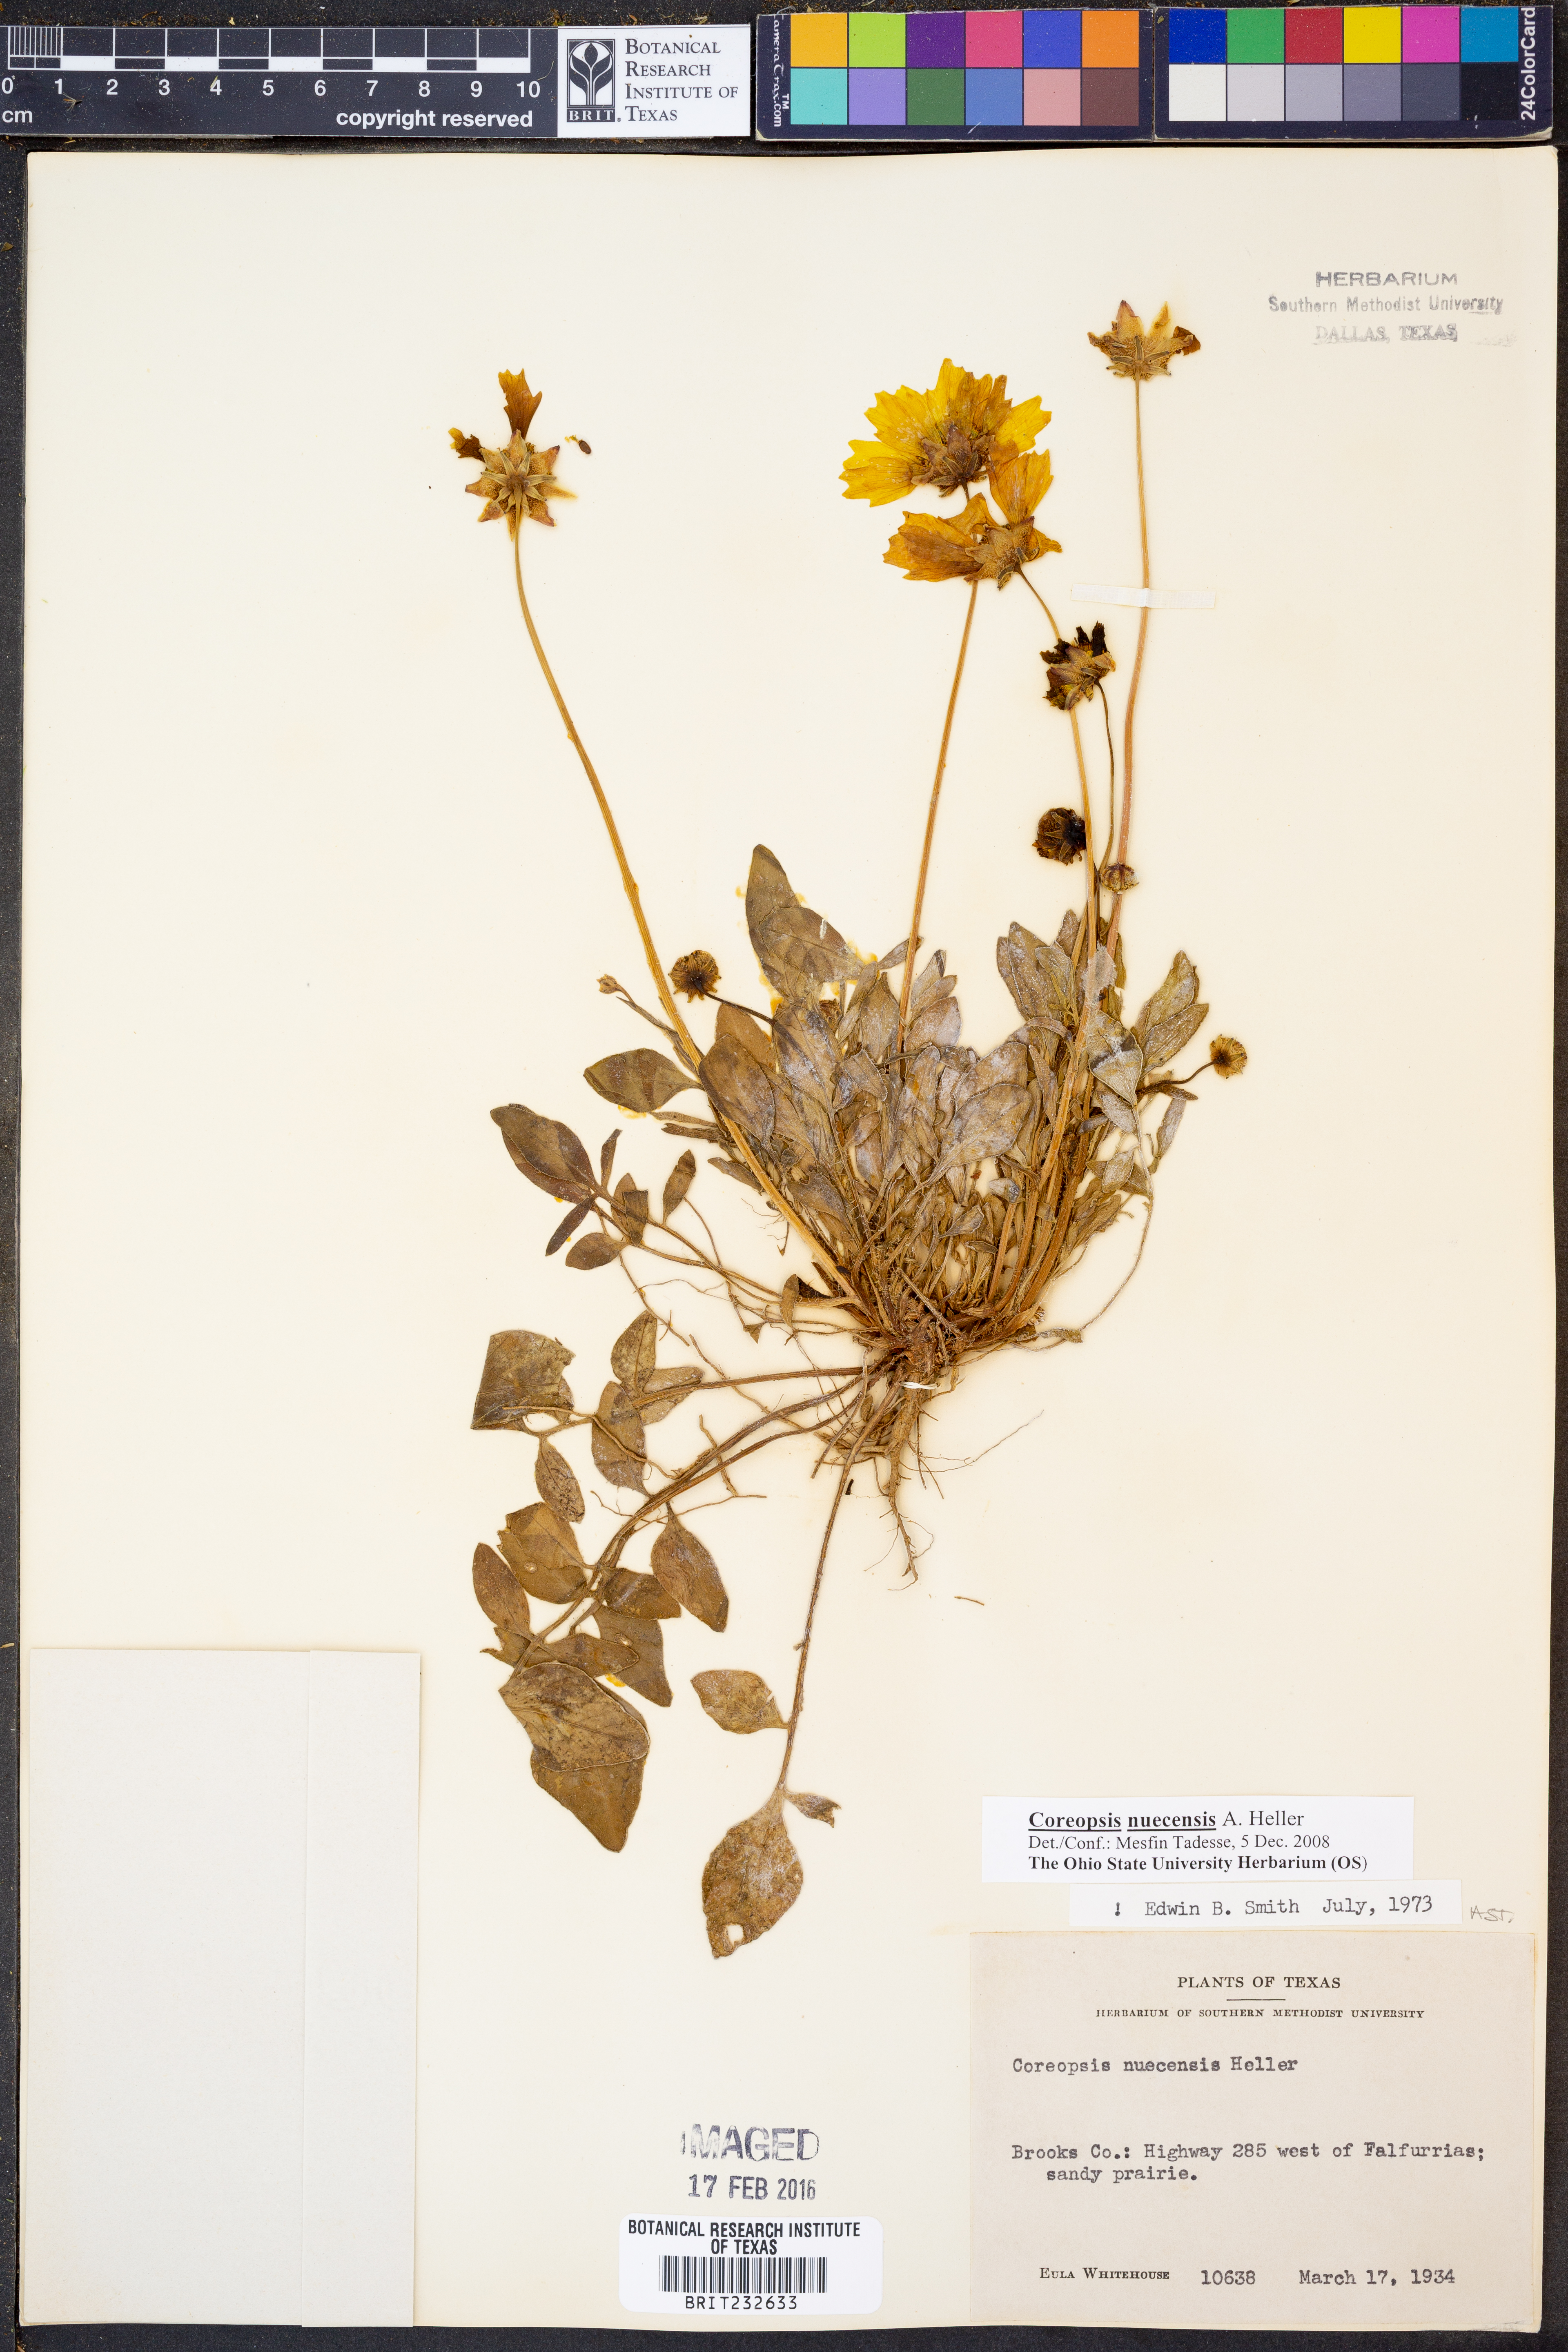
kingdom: Plantae
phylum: Tracheophyta
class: Magnoliopsida
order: Asterales
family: Asteraceae
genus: Coreopsis
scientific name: Coreopsis nuecensis
